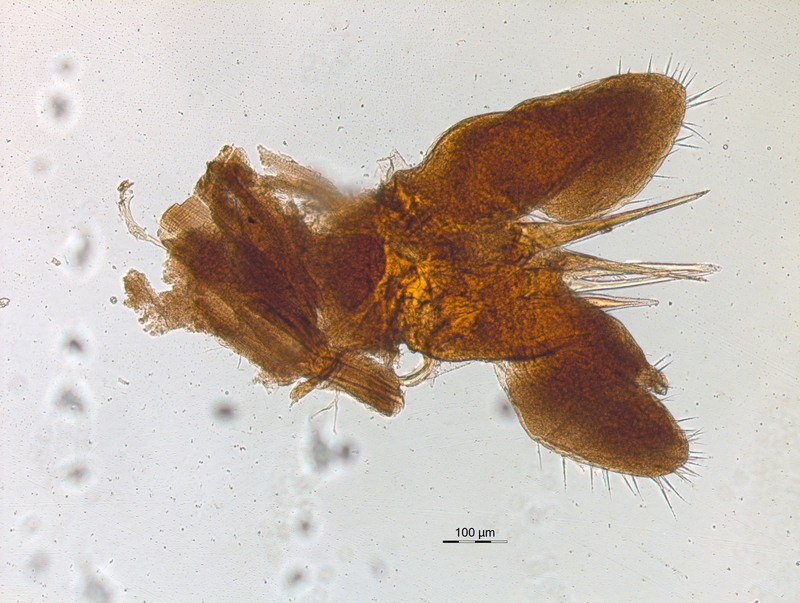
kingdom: Animalia
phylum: Arthropoda
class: Diplopoda
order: Chordeumatida
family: Chordeumatidae
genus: Melogona
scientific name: Melogona voigtii
